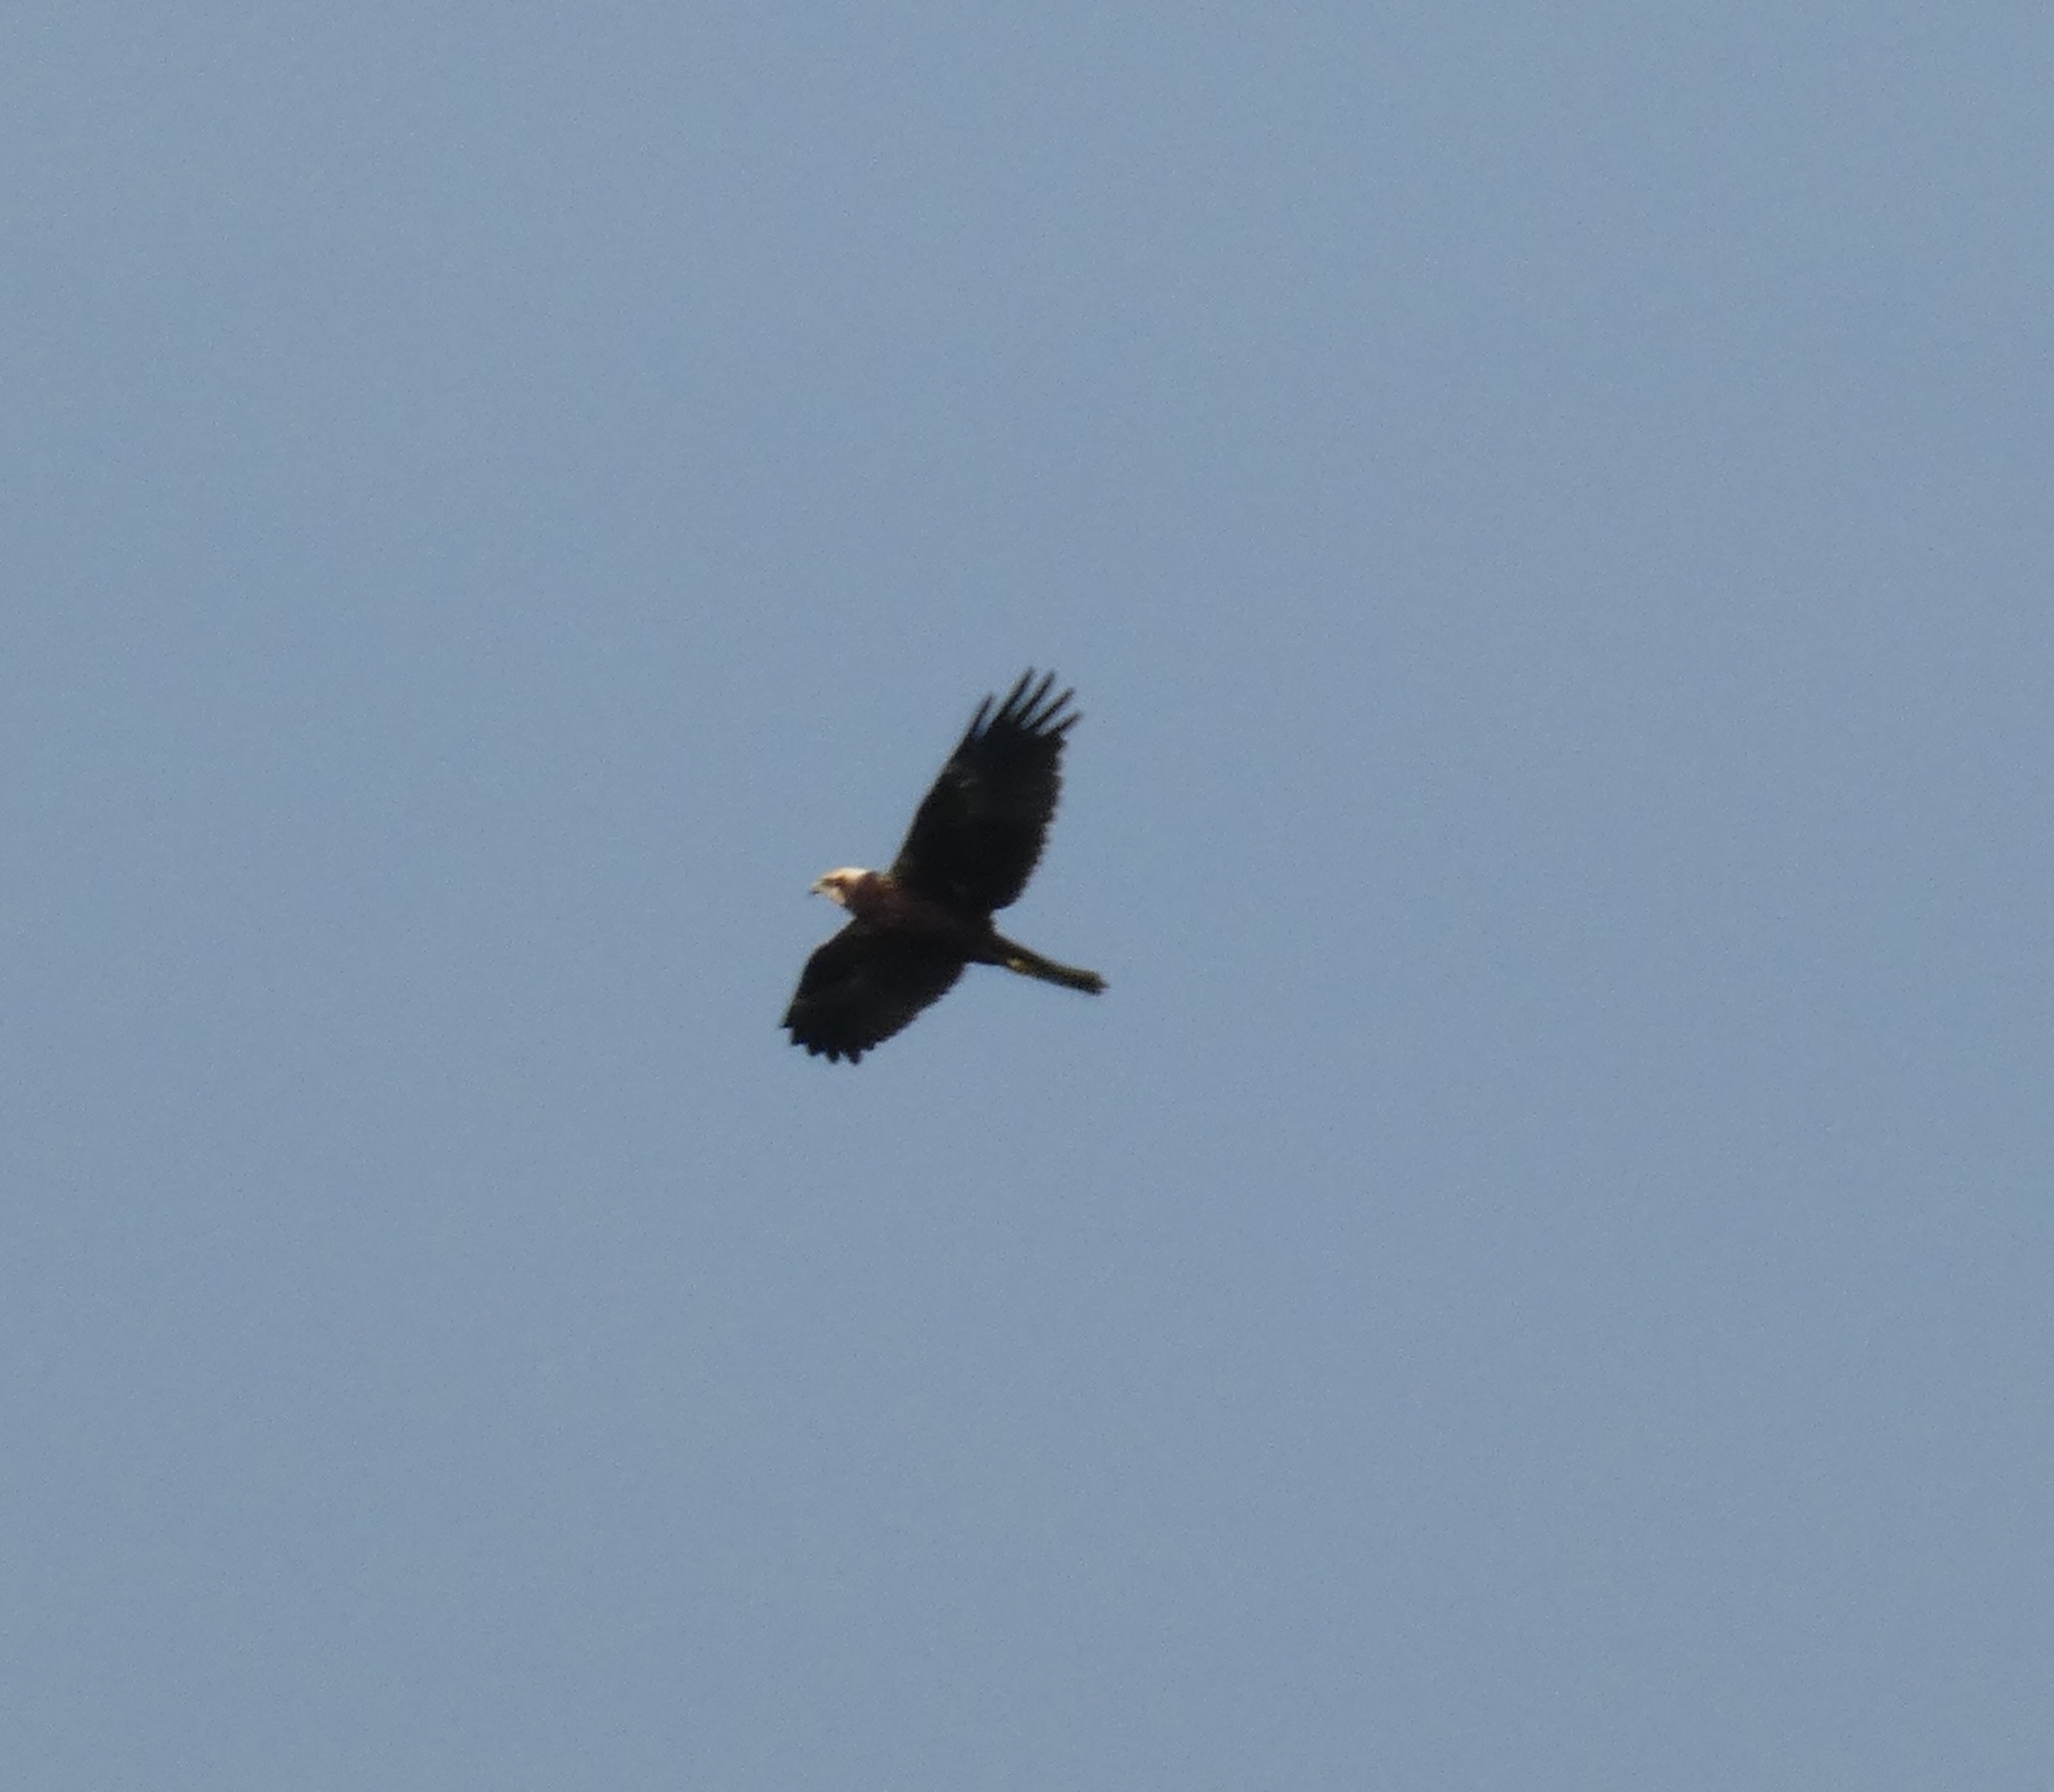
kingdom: Animalia
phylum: Chordata
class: Aves
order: Accipitriformes
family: Accipitridae
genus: Circus
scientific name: Circus aeruginosus
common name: Rørhøg
